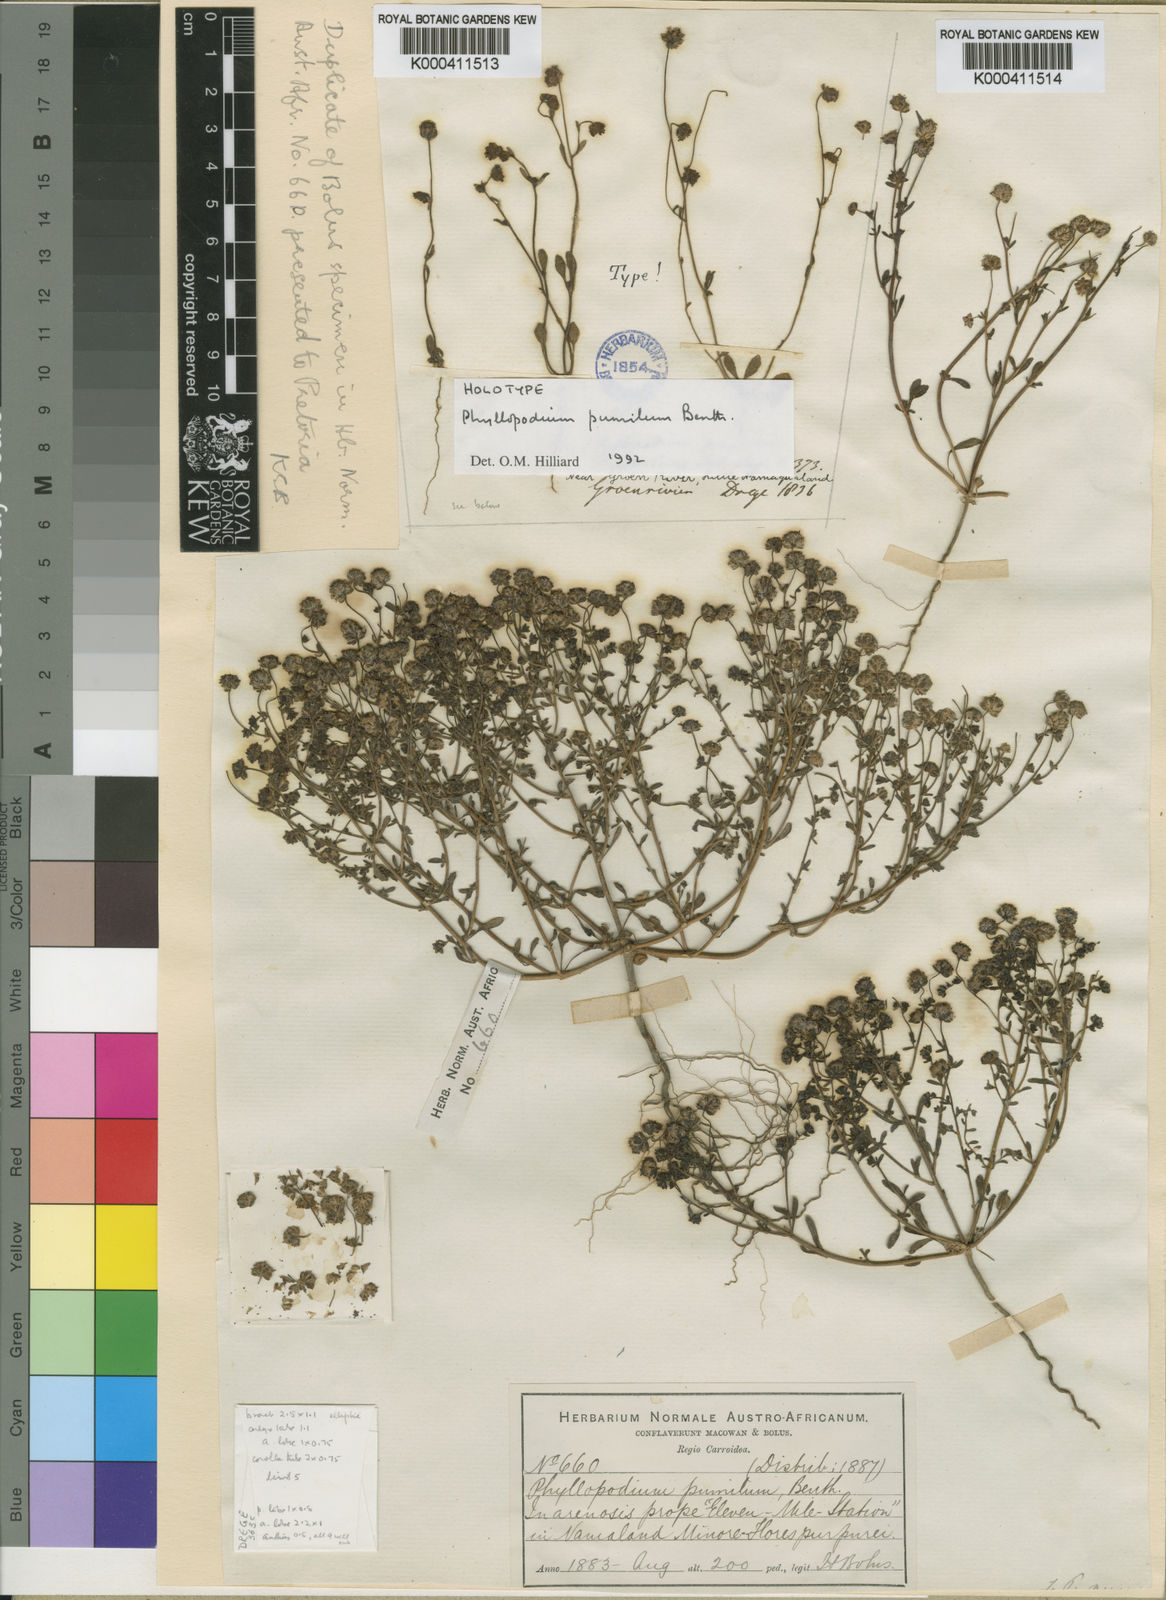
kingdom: Plantae
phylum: Tracheophyta
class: Magnoliopsida
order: Lamiales
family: Scrophulariaceae
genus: Phyllopodium
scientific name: Phyllopodium pumilum
